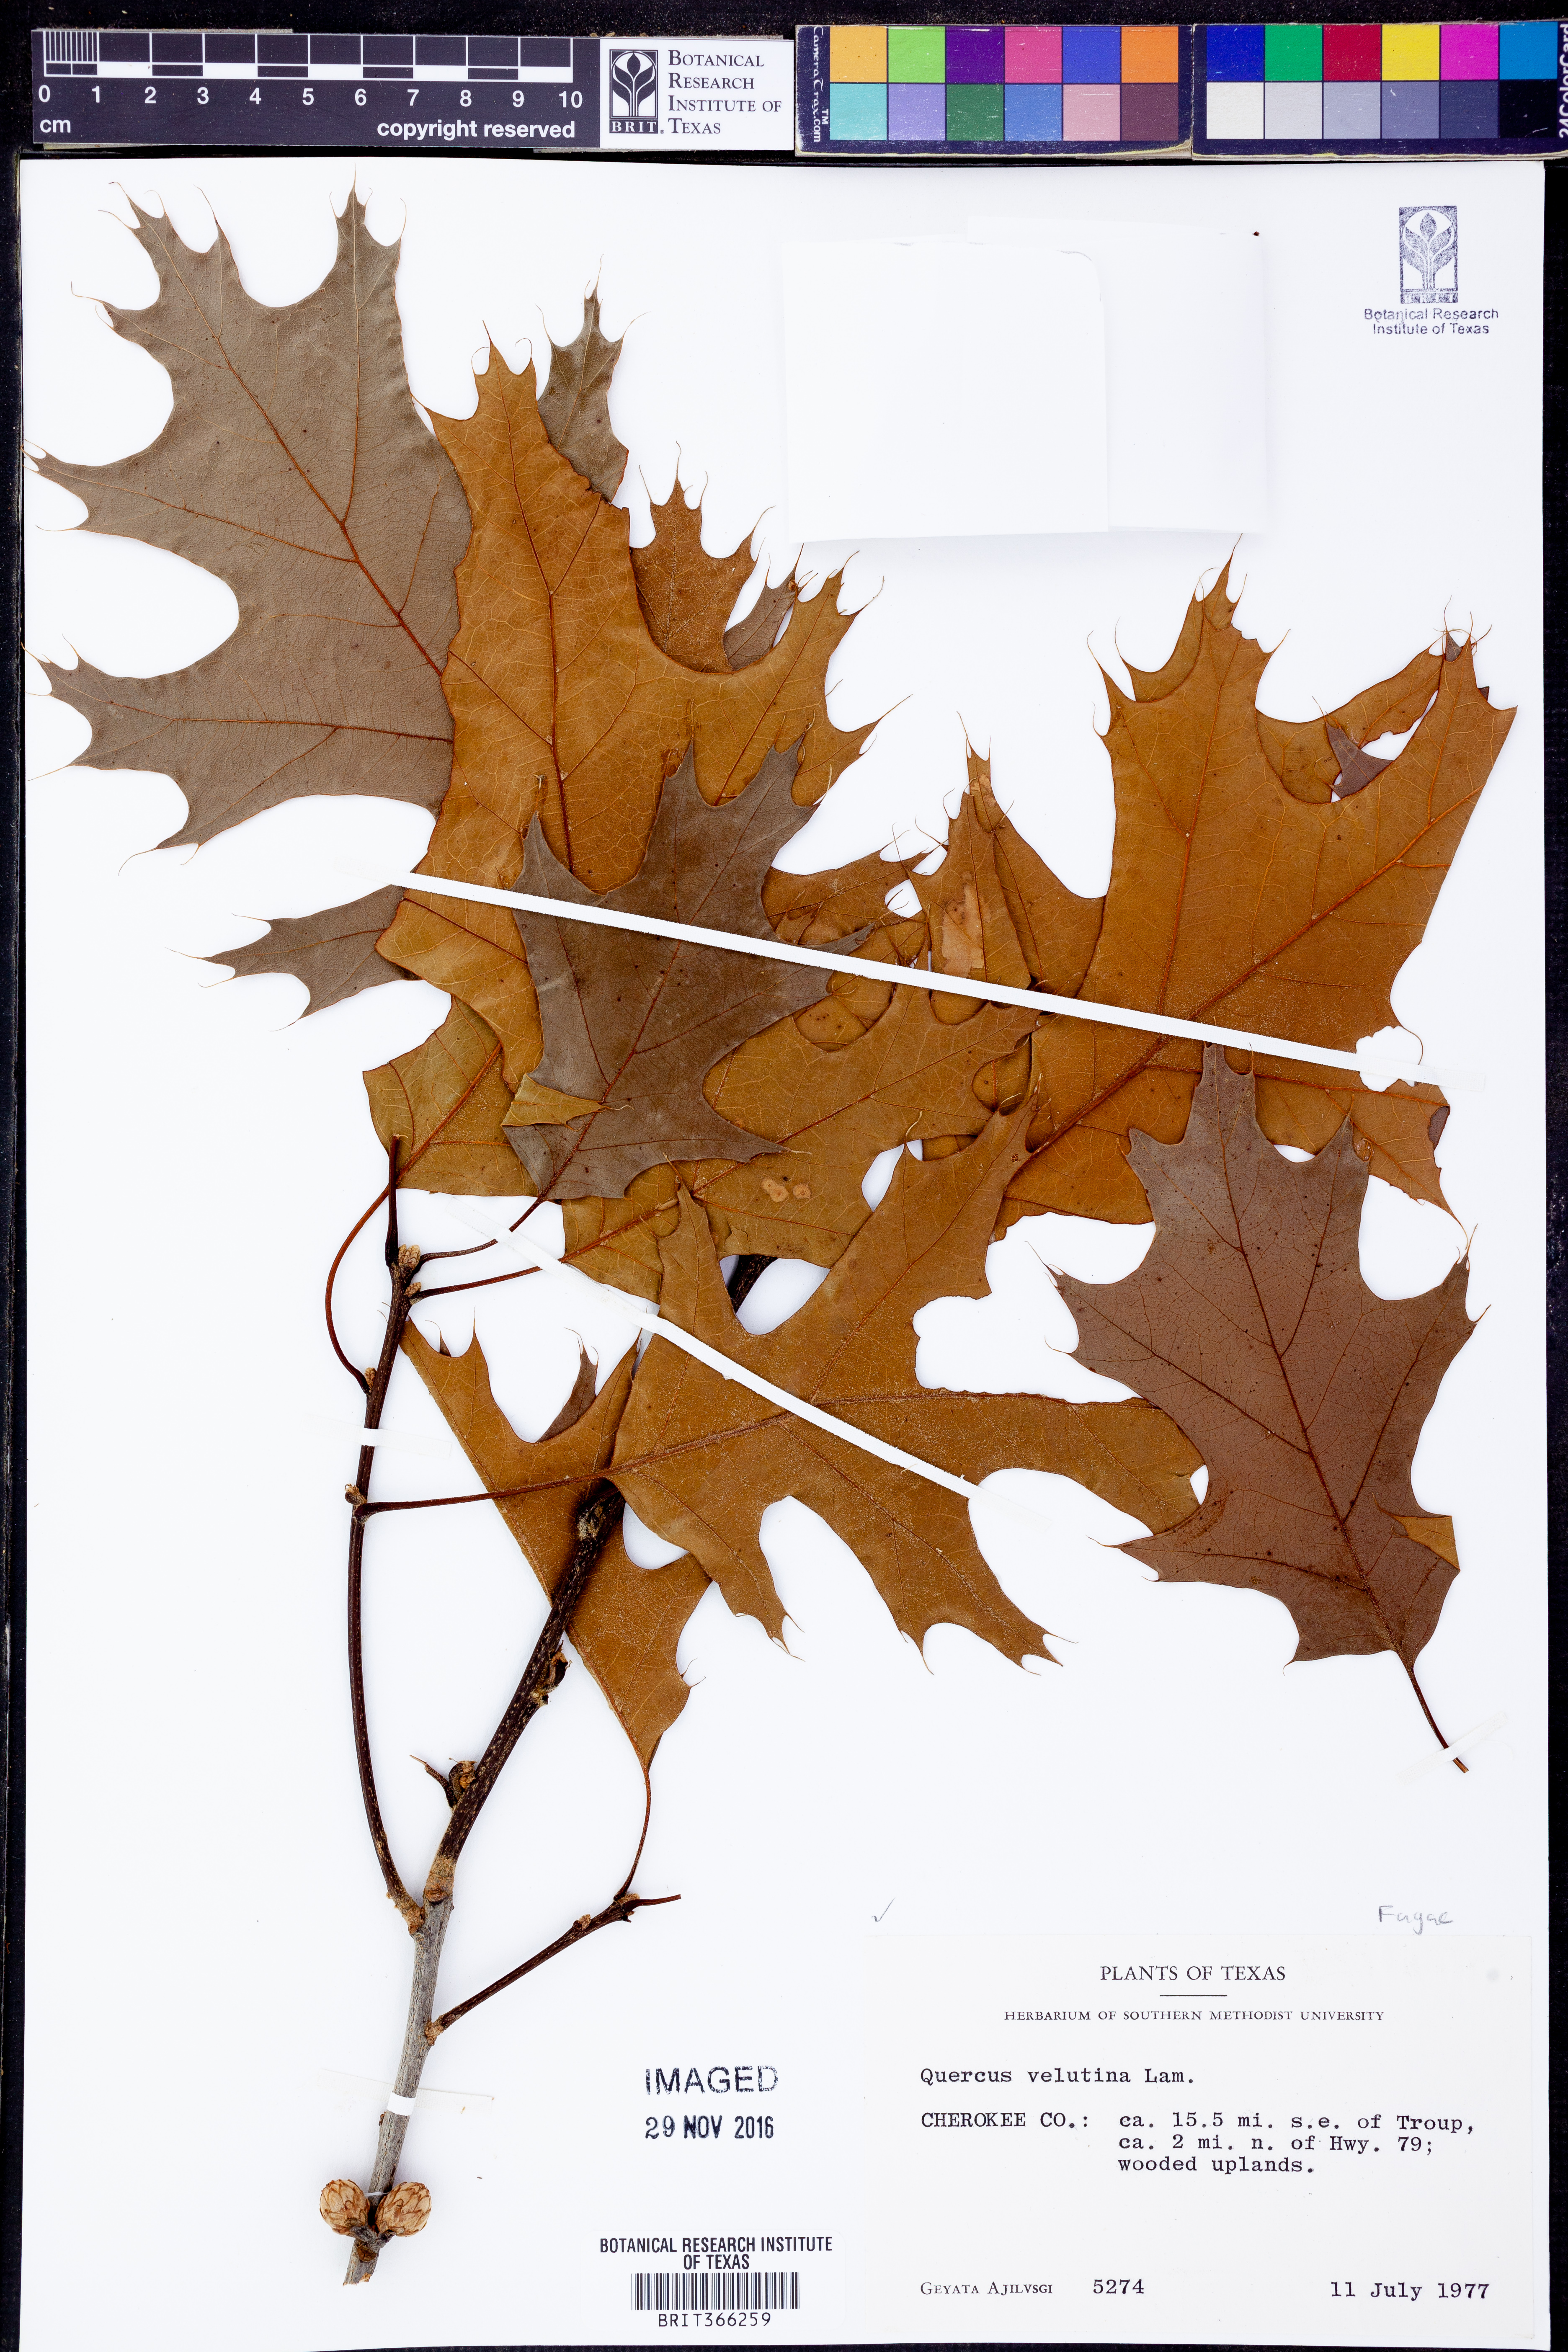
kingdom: Plantae
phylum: Tracheophyta
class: Magnoliopsida
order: Fagales
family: Fagaceae
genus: Quercus
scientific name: Quercus velutina
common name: Black oak
